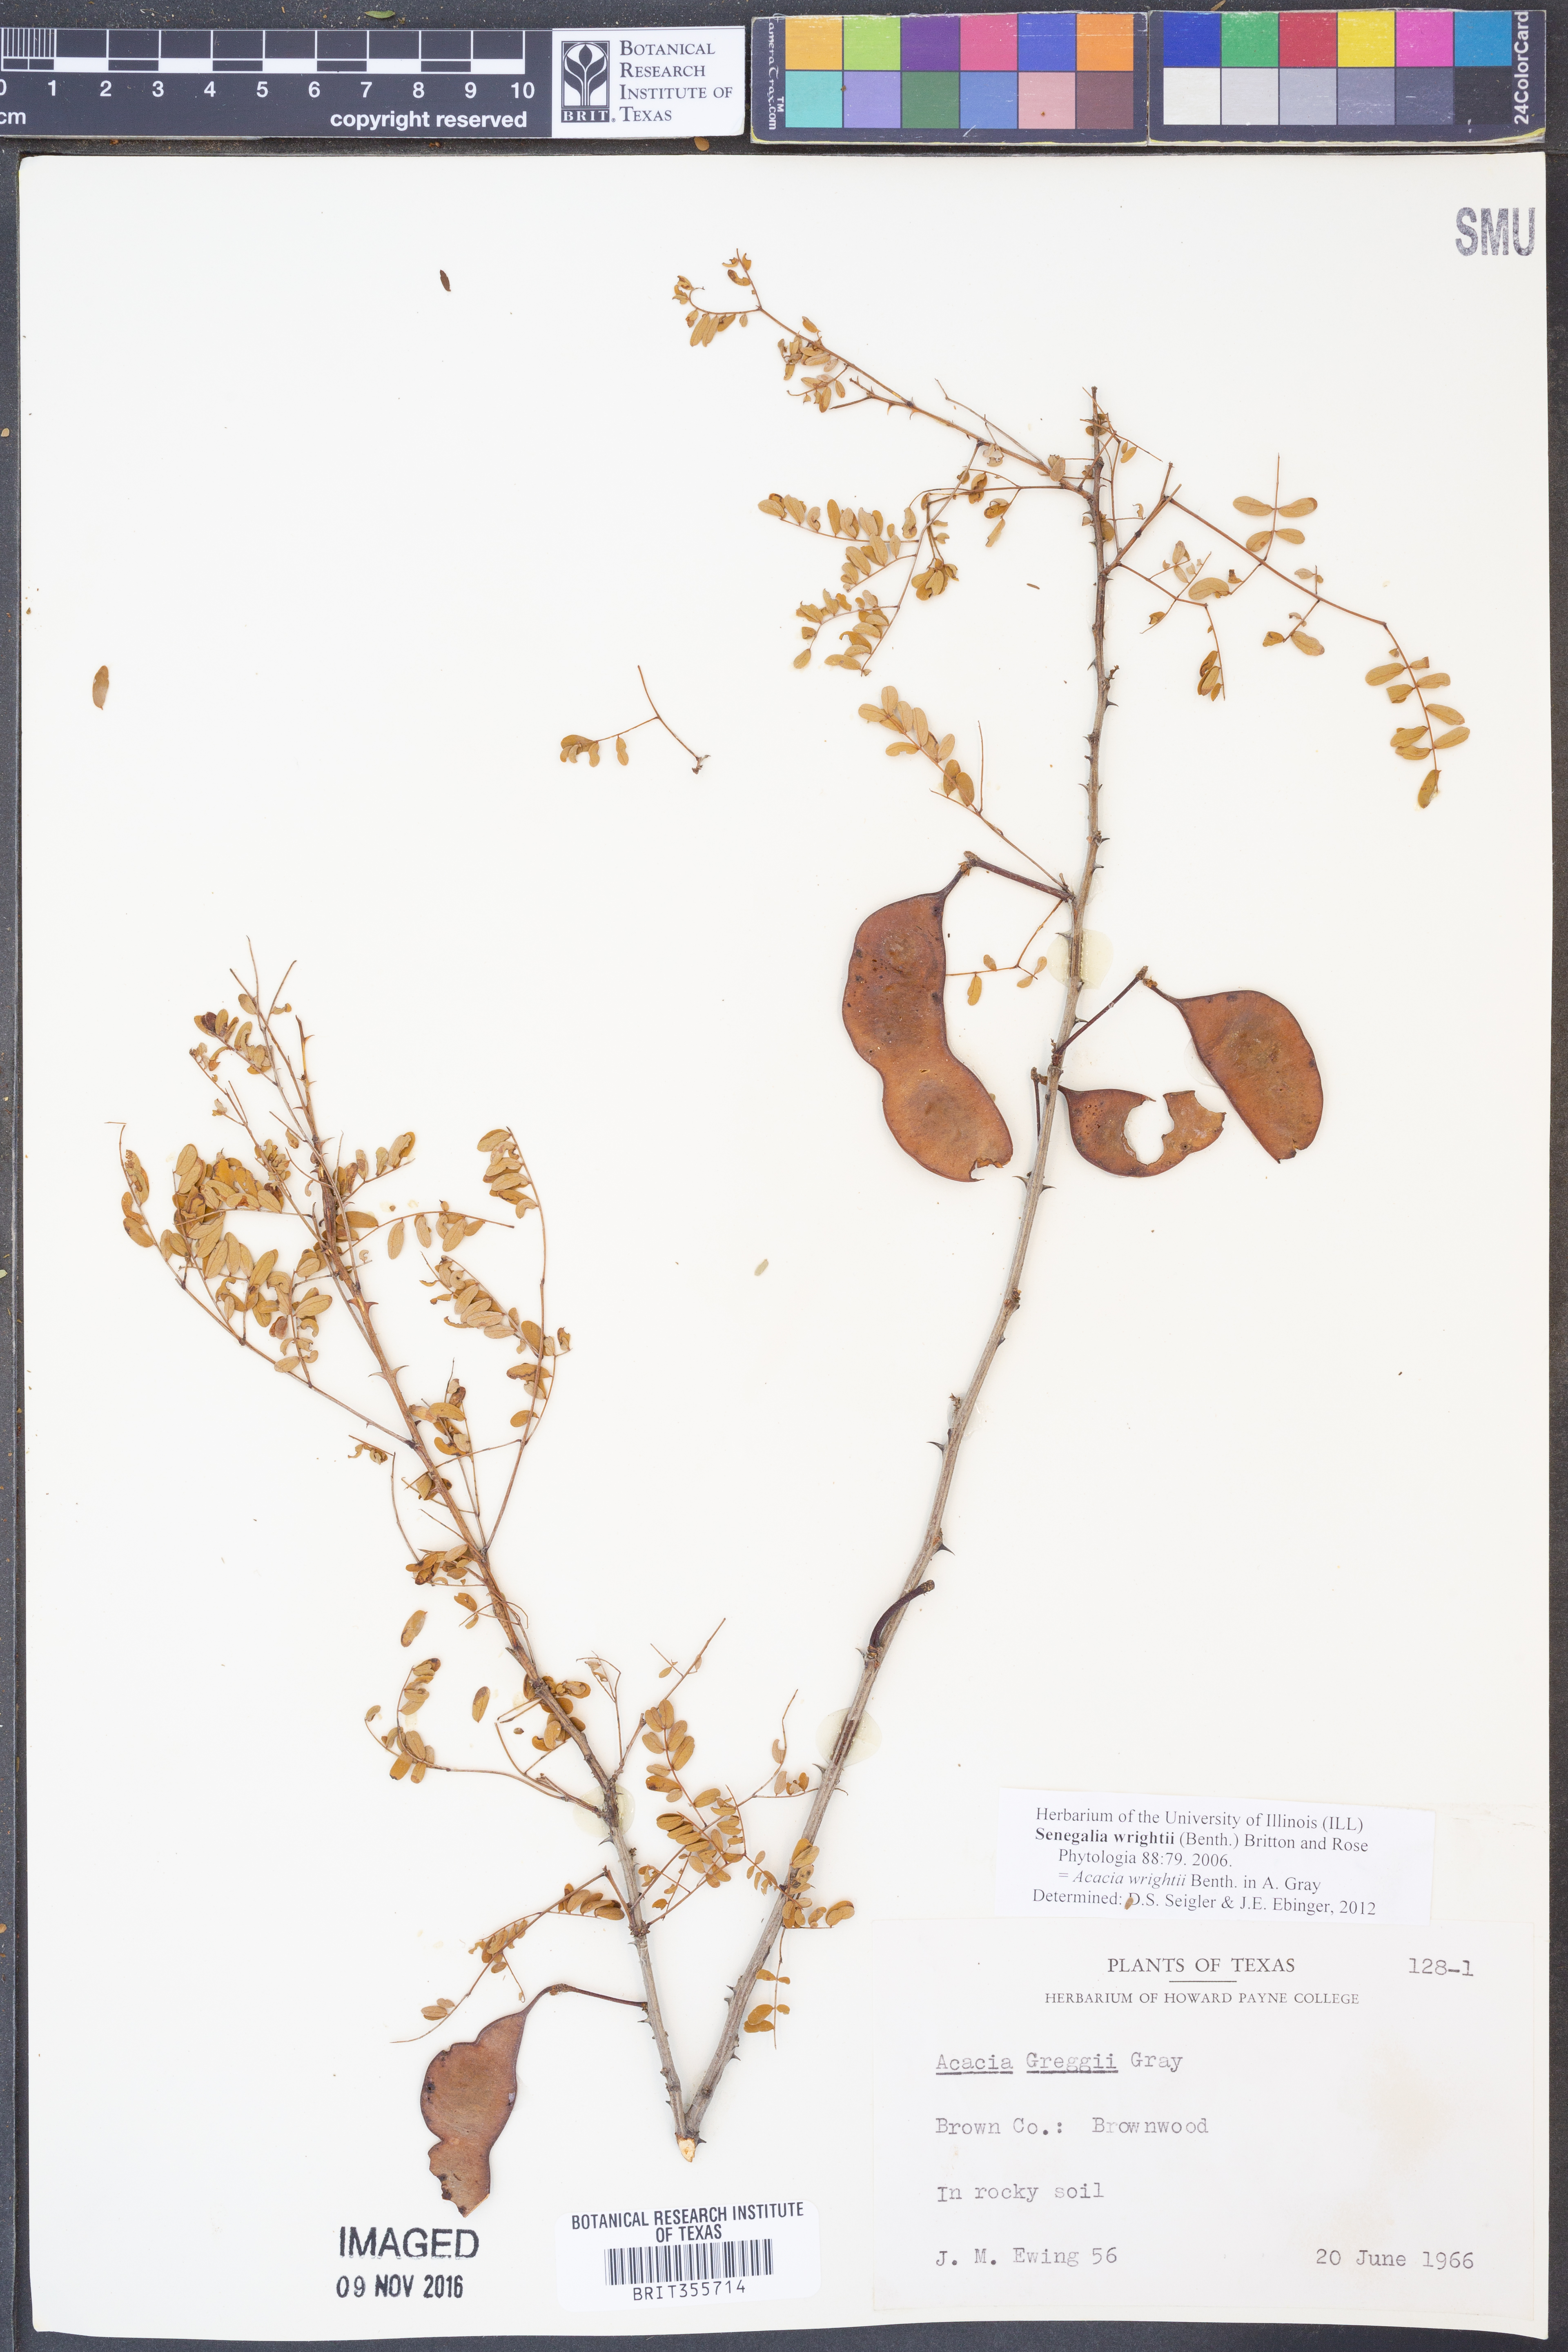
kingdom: Plantae
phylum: Tracheophyta
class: Magnoliopsida
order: Fabales
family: Fabaceae
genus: Senegalia
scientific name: Senegalia wrightii
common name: Texas cat's-claw
